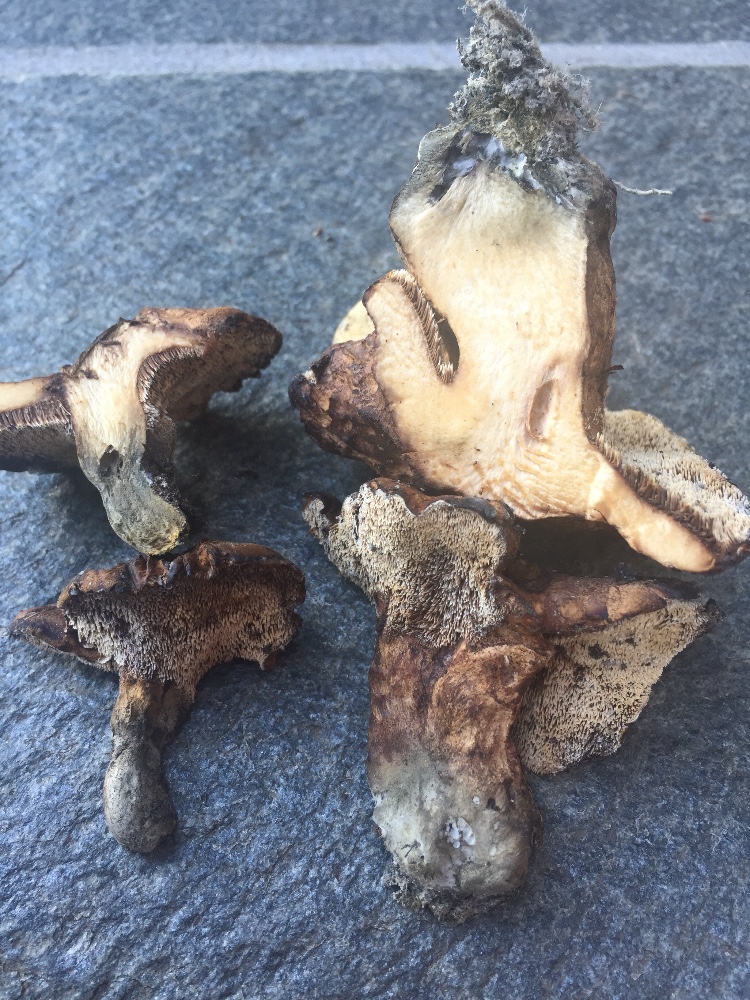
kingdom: Fungi
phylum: Basidiomycota
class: Agaricomycetes
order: Thelephorales
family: Bankeraceae
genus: Hydnellum
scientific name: Hydnellum lepidum
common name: skrænt-korkpigsvamp
